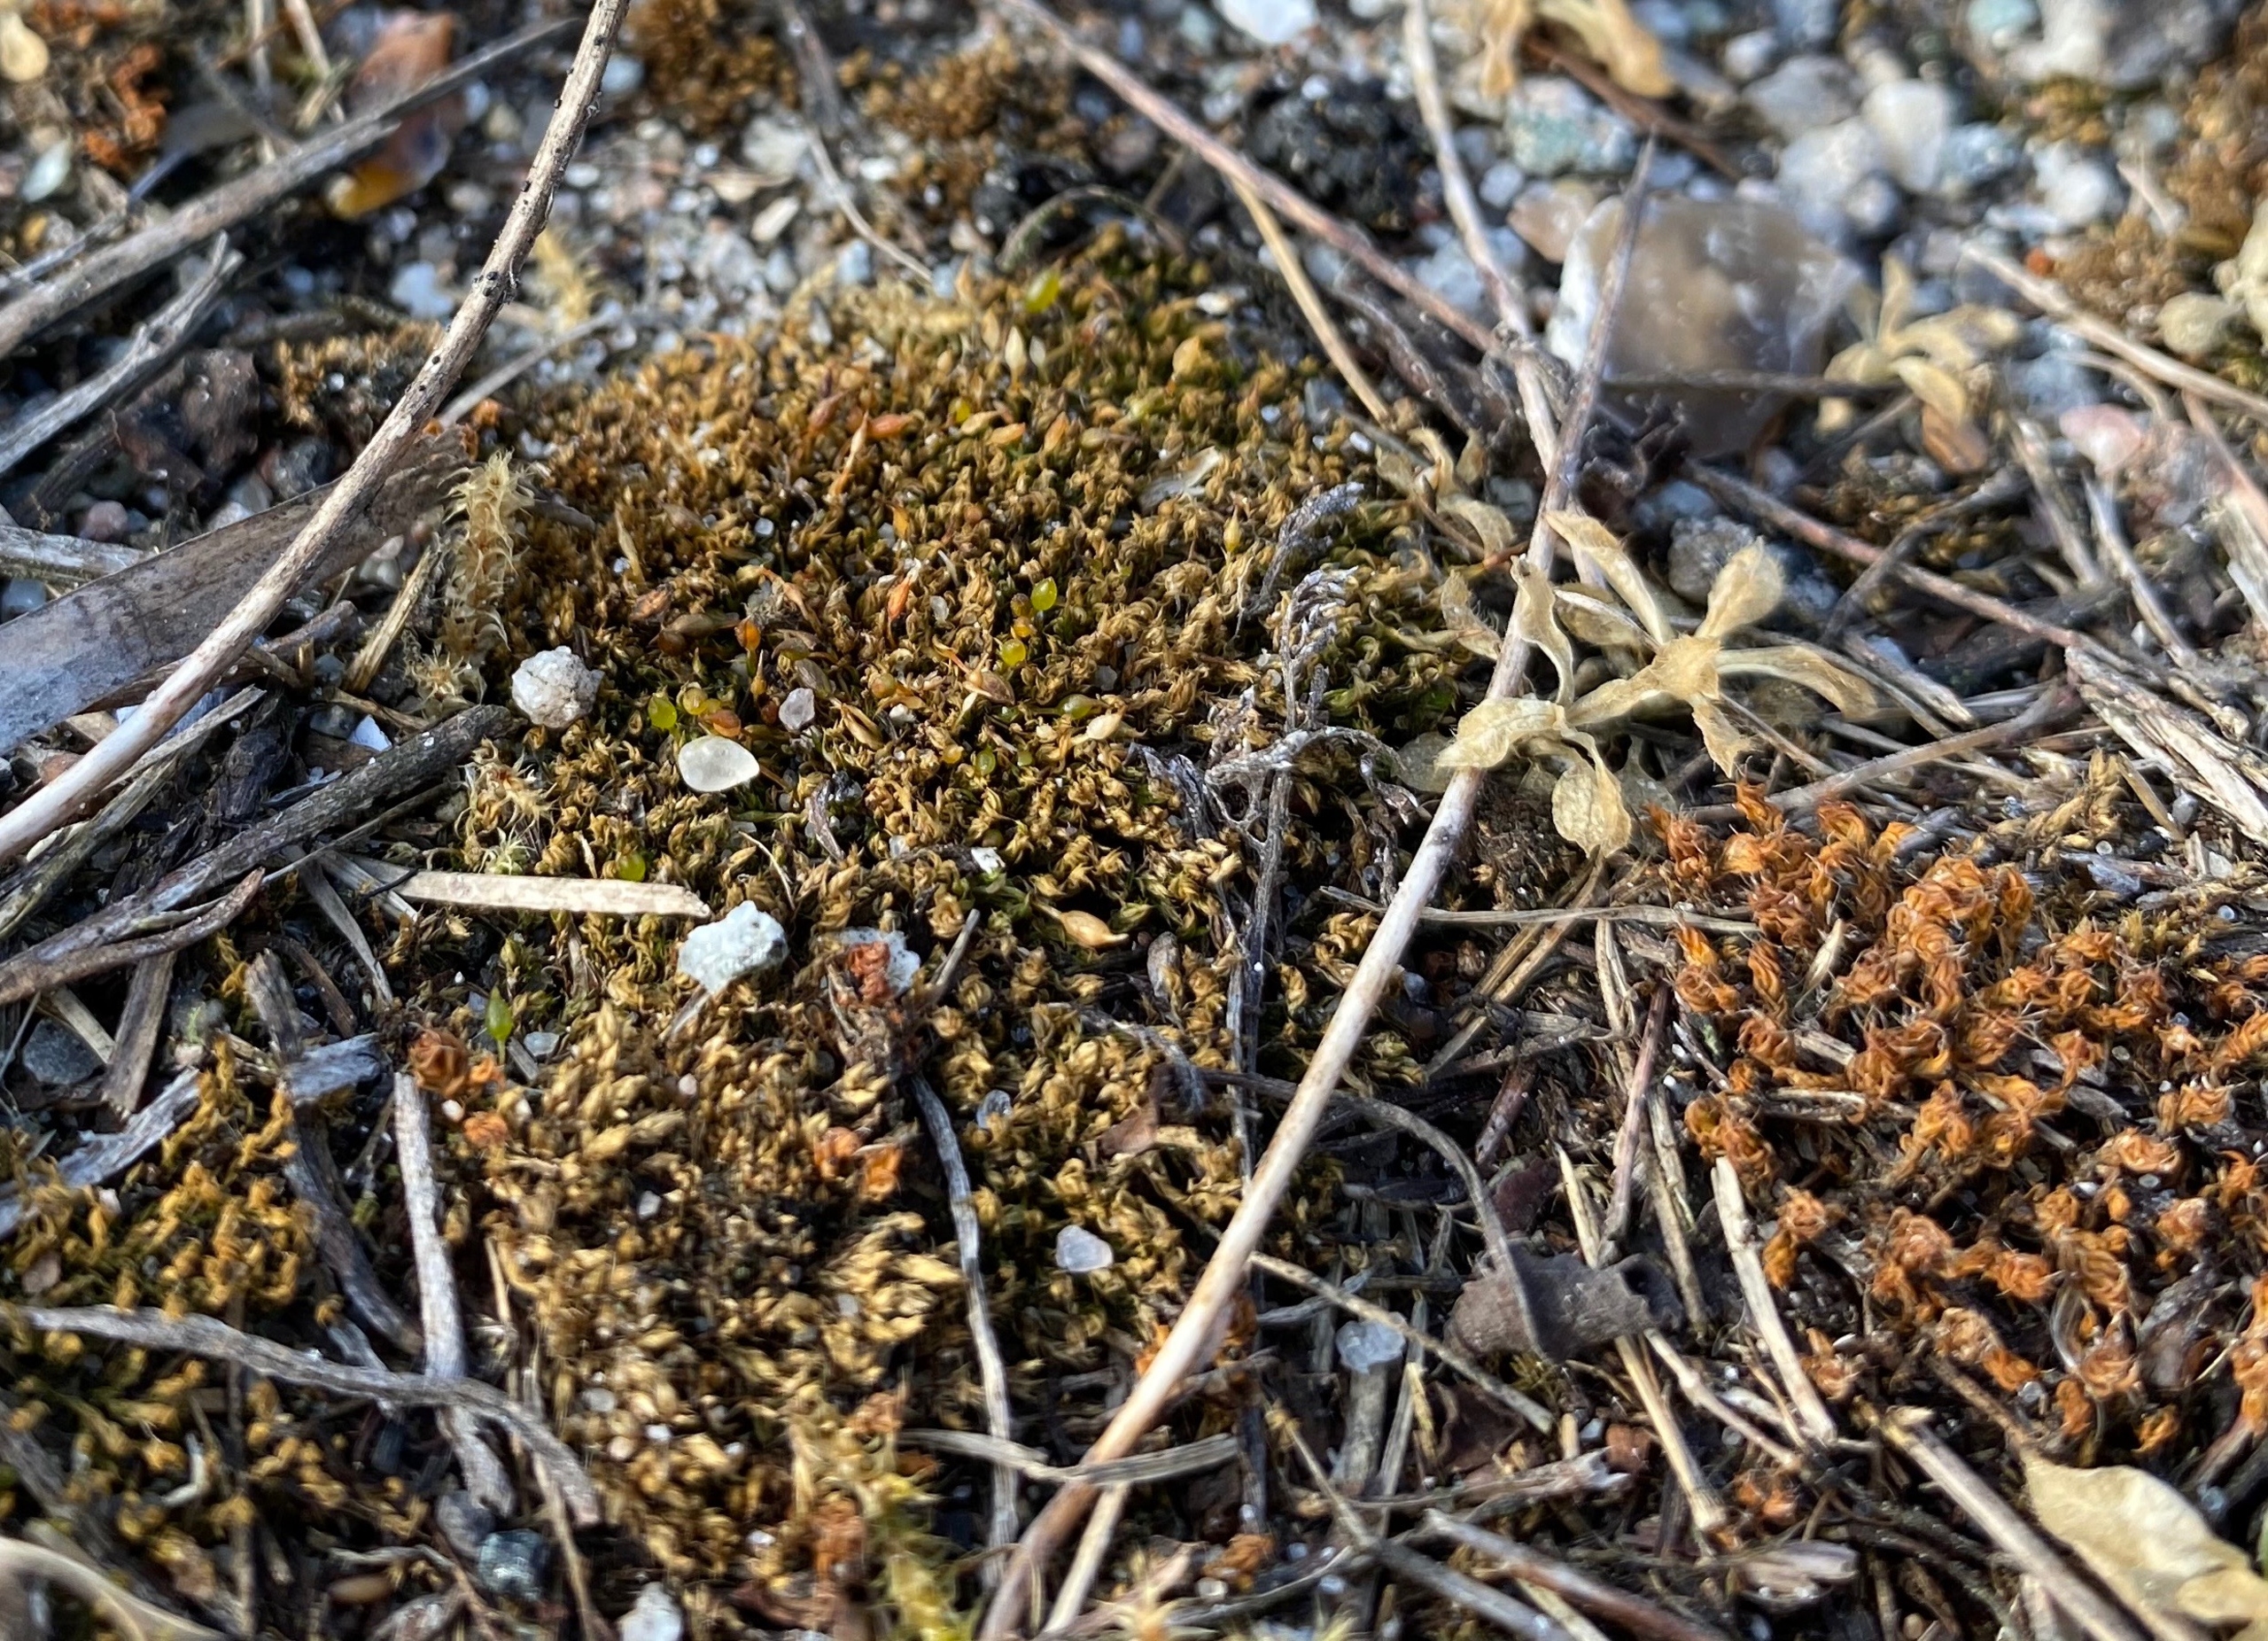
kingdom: Plantae
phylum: Bryophyta
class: Bryopsida
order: Pottiales
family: Pottiaceae
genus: Tortula
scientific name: Tortula protobryoides
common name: Lukket bægermos
